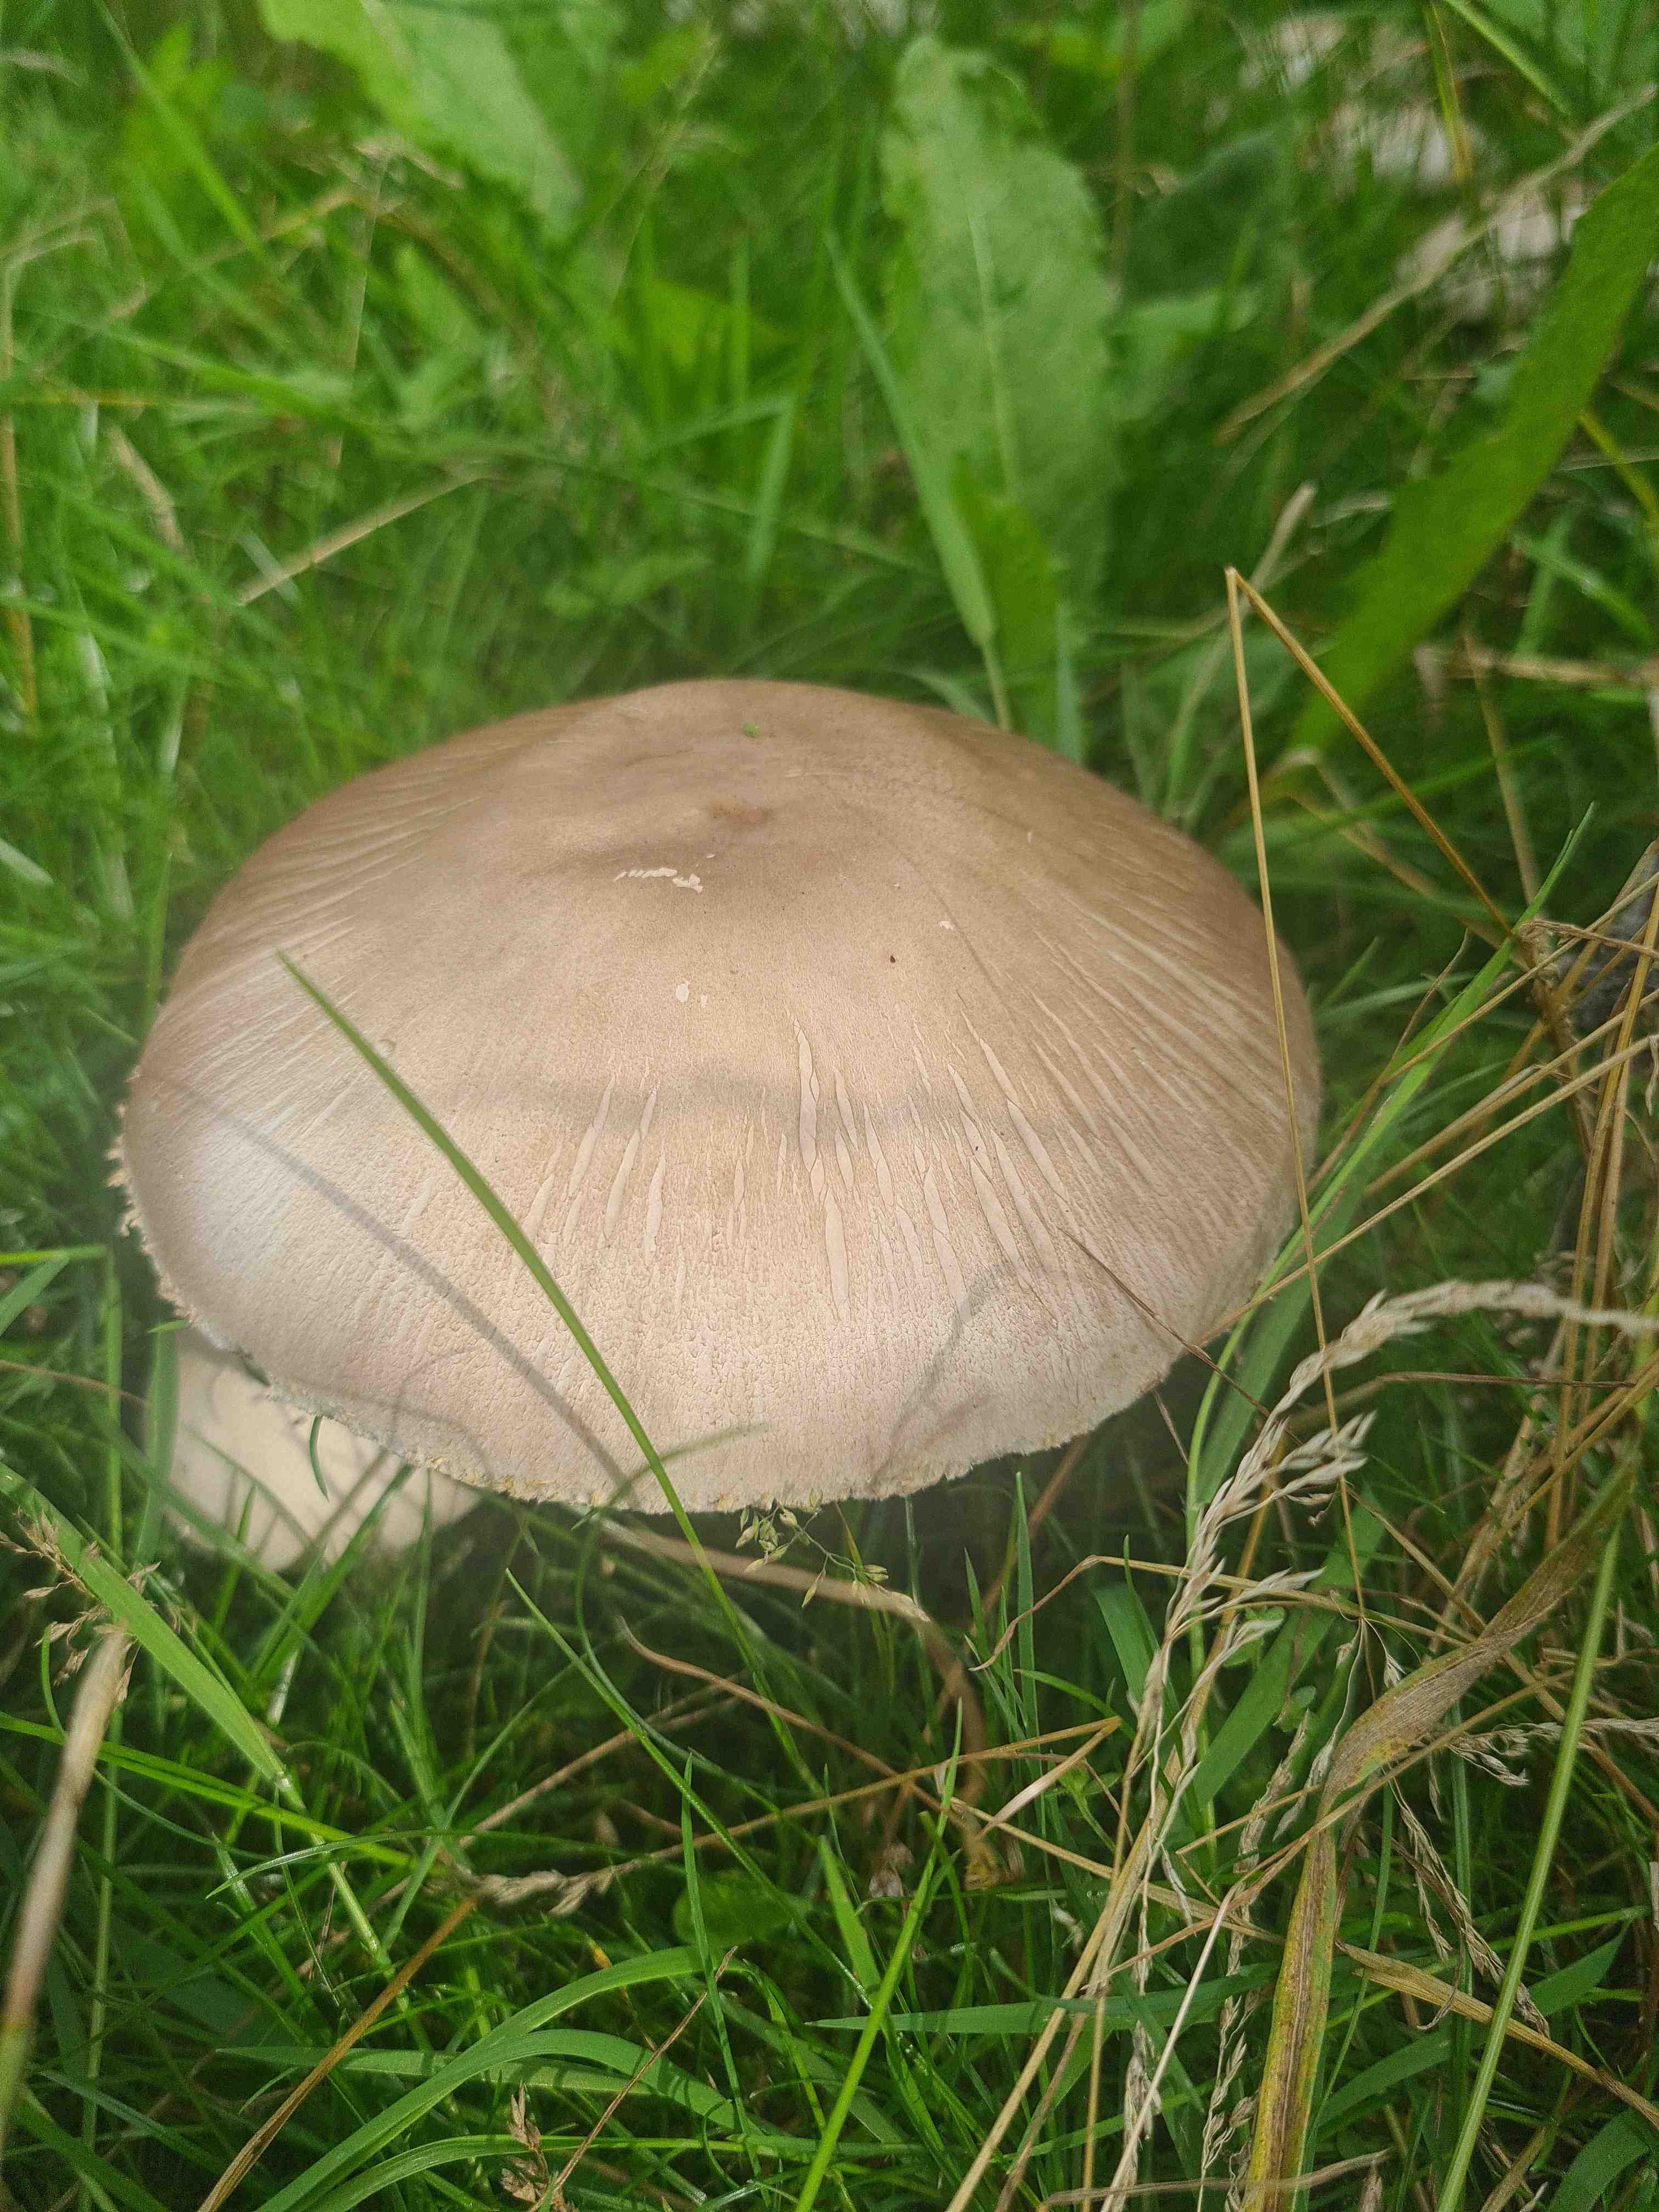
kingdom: Fungi
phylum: Basidiomycota
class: Agaricomycetes
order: Agaricales
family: Agaricaceae
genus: Agaricus
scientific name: Agaricus xanthodermus
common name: karbol-champignon
